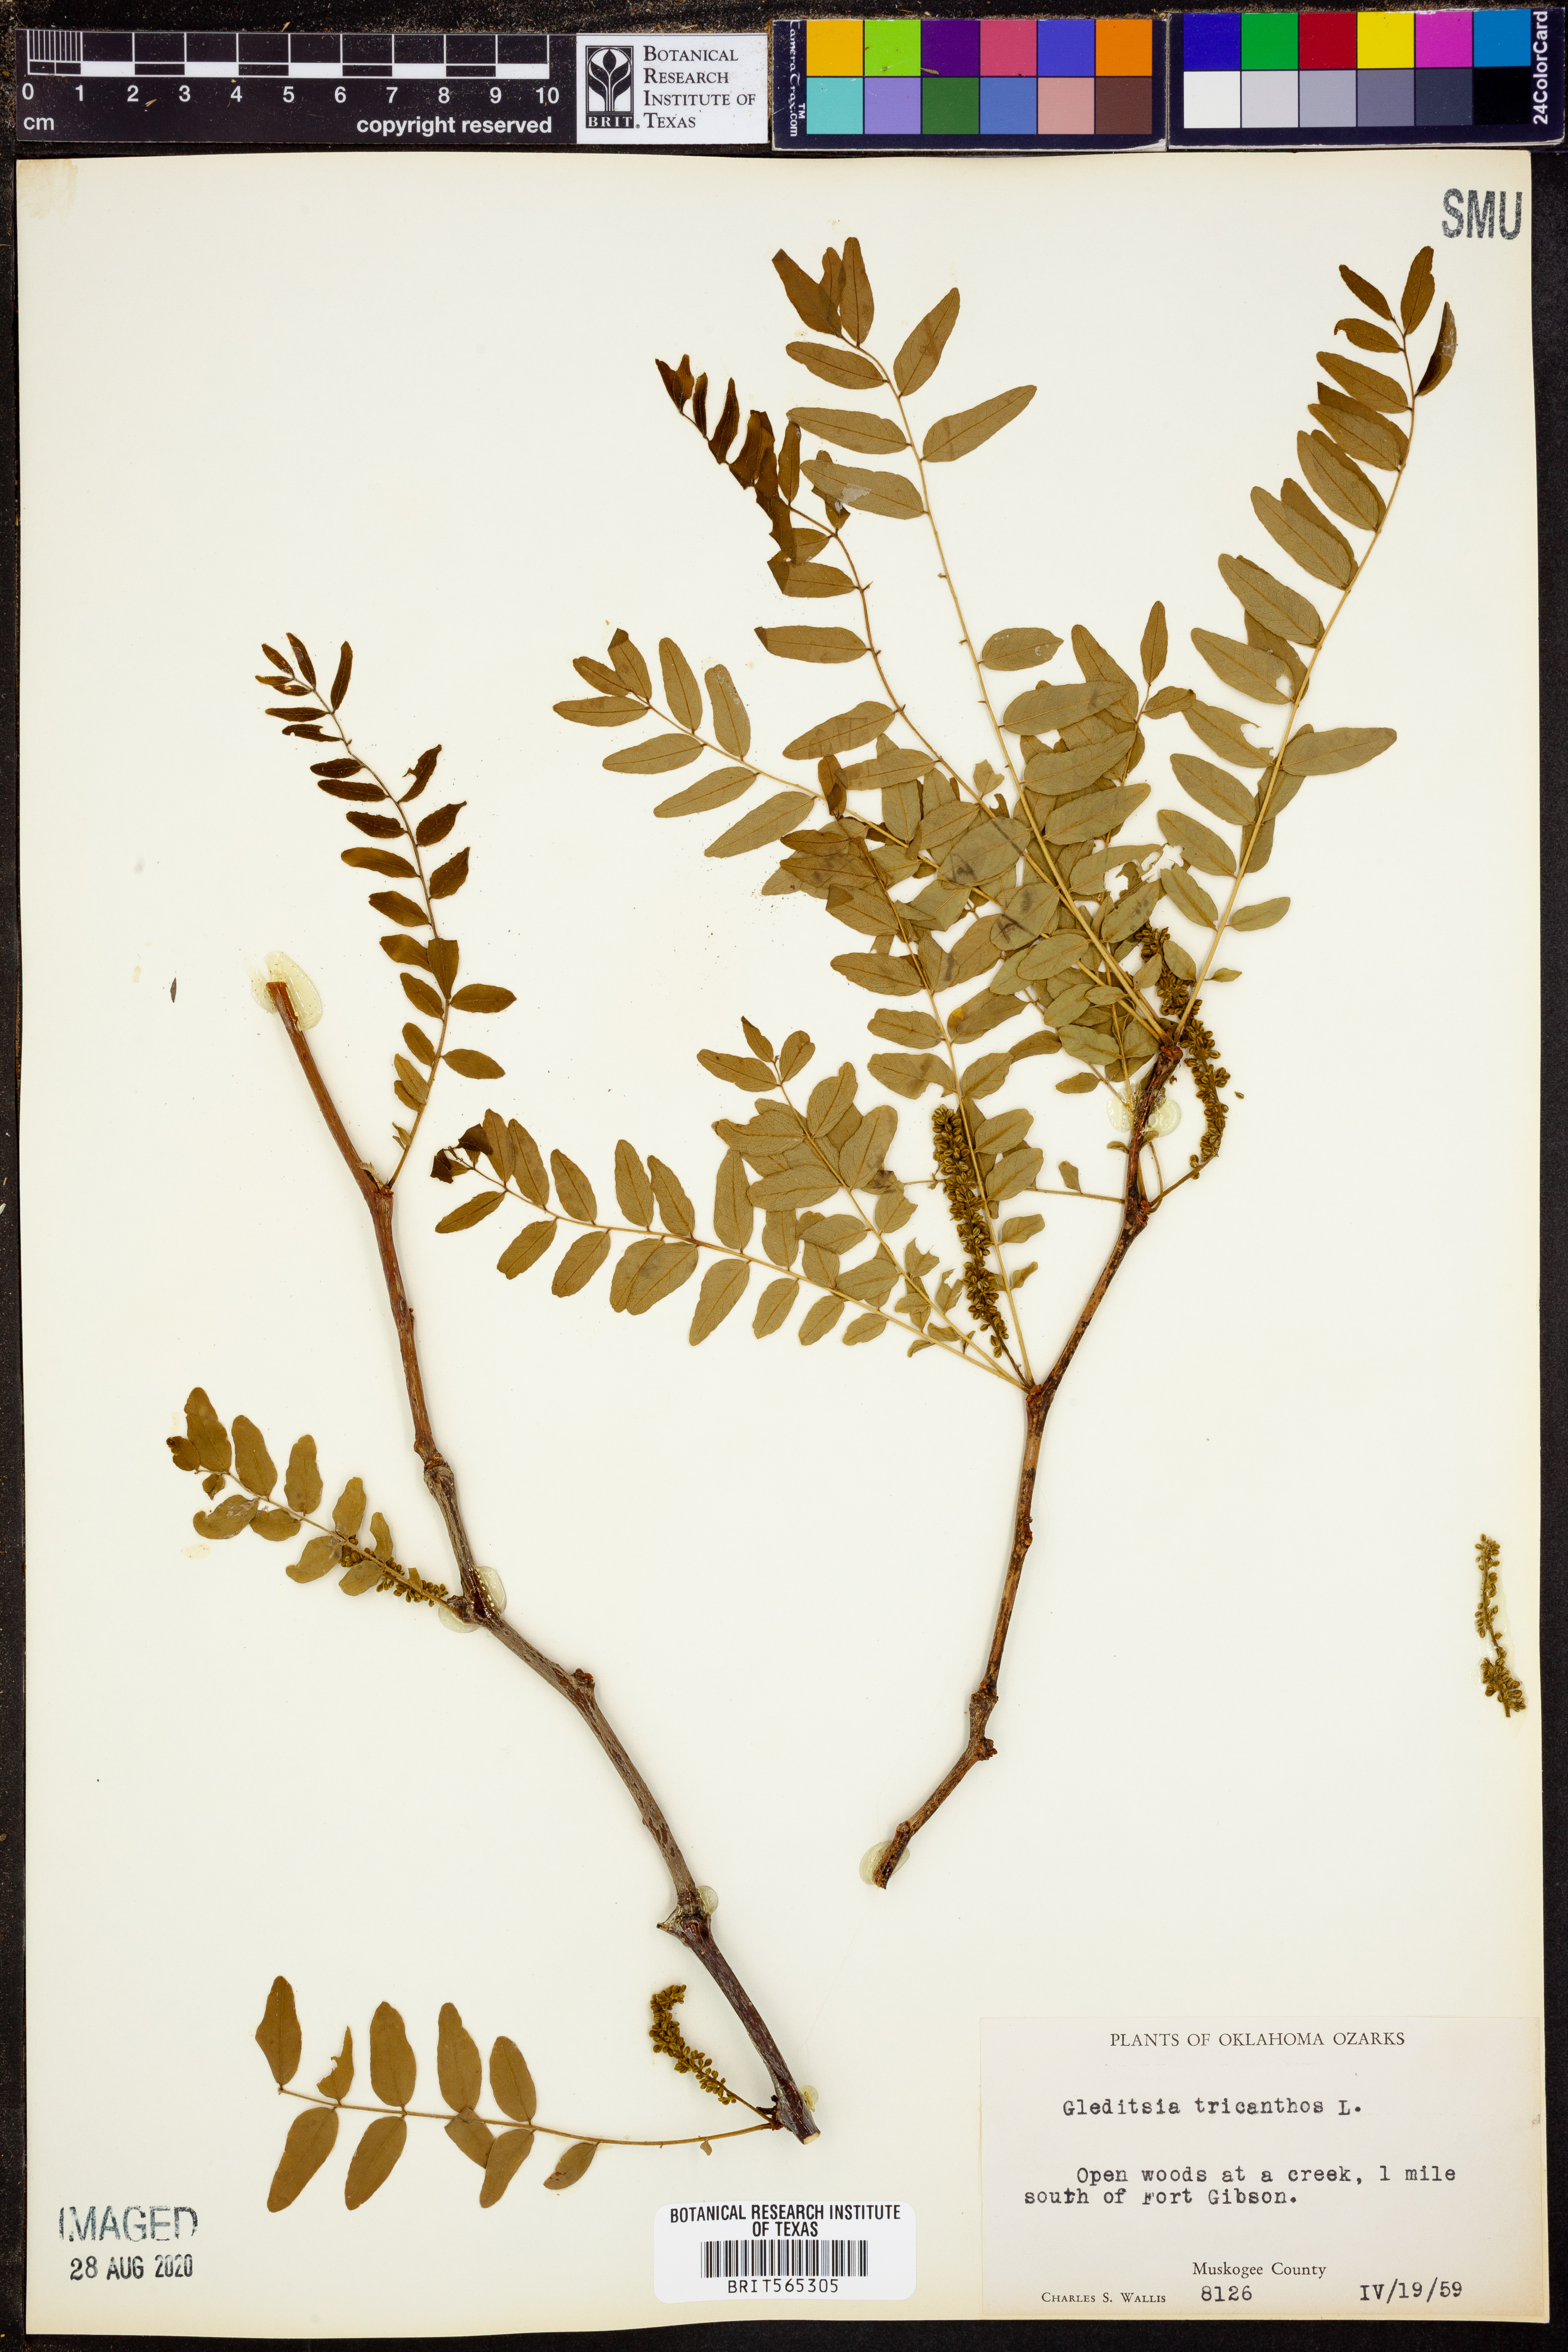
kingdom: Plantae
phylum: Tracheophyta
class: Magnoliopsida
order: Fabales
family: Fabaceae
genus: Gleditsia
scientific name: Gleditsia triacanthos
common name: Common honeylocust
